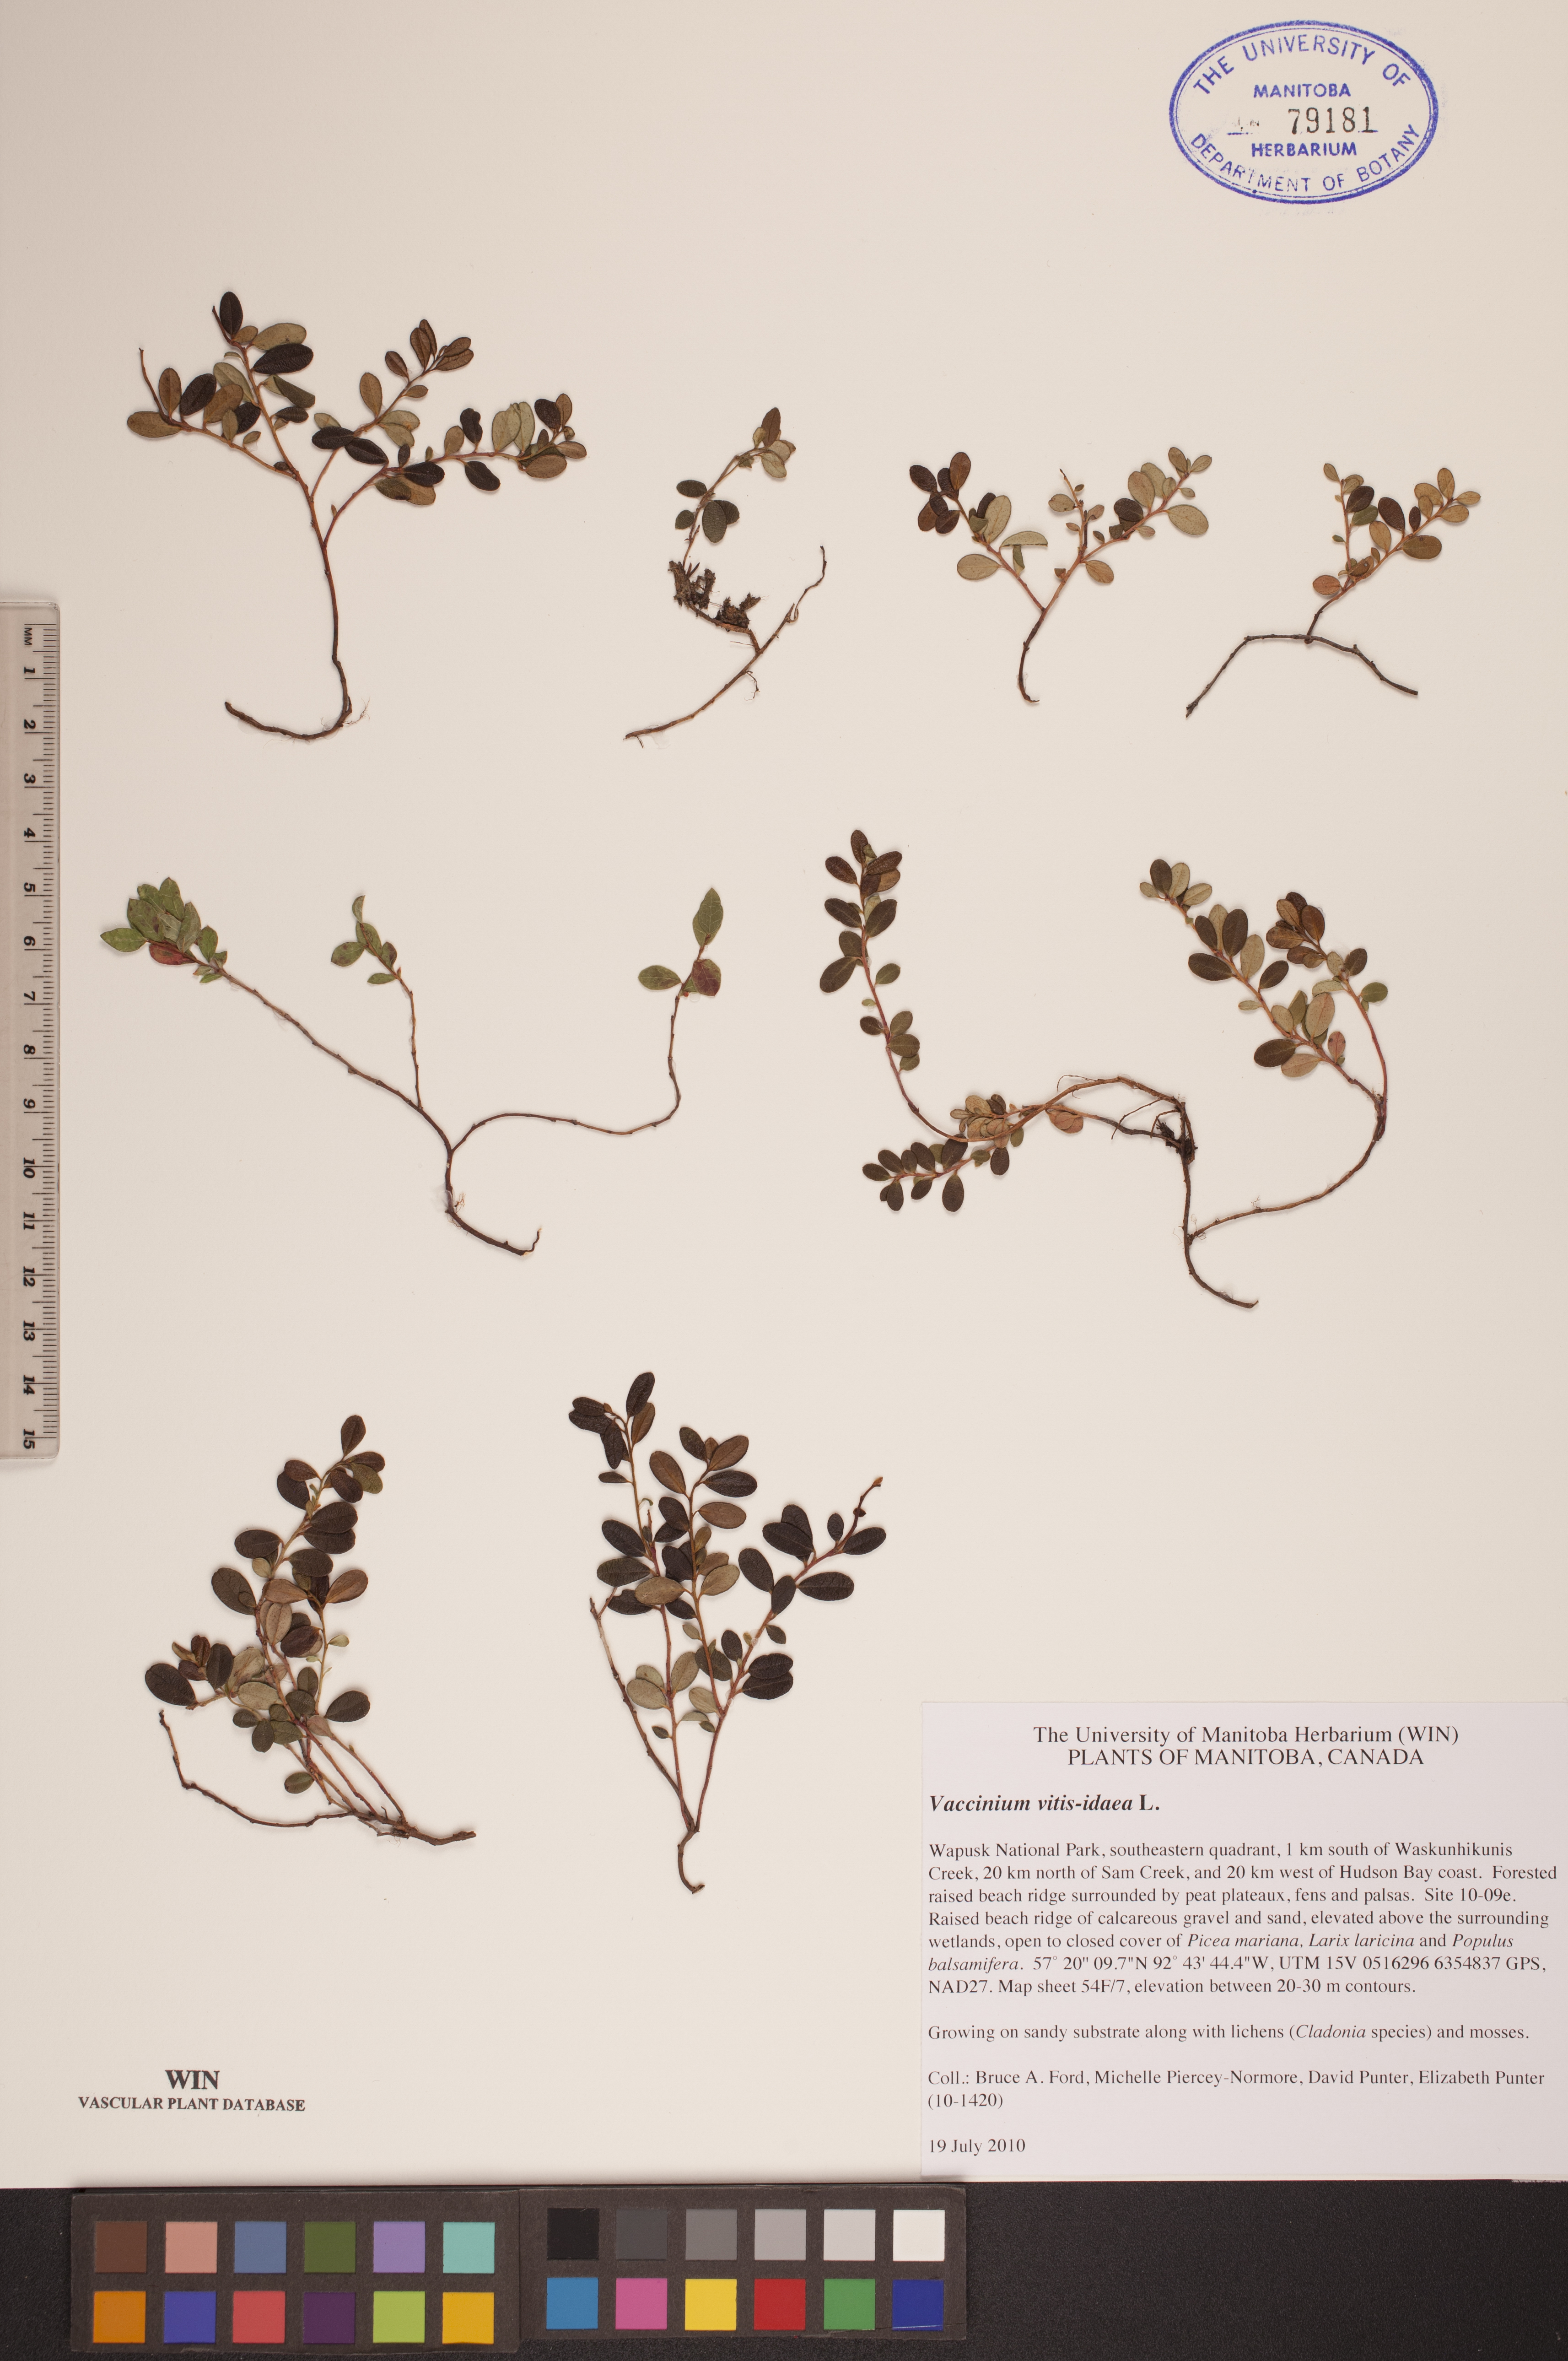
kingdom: Plantae
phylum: Tracheophyta
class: Magnoliopsida
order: Ericales
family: Ericaceae
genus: Vaccinium
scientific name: Vaccinium vitis-idaea
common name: Cowberry
